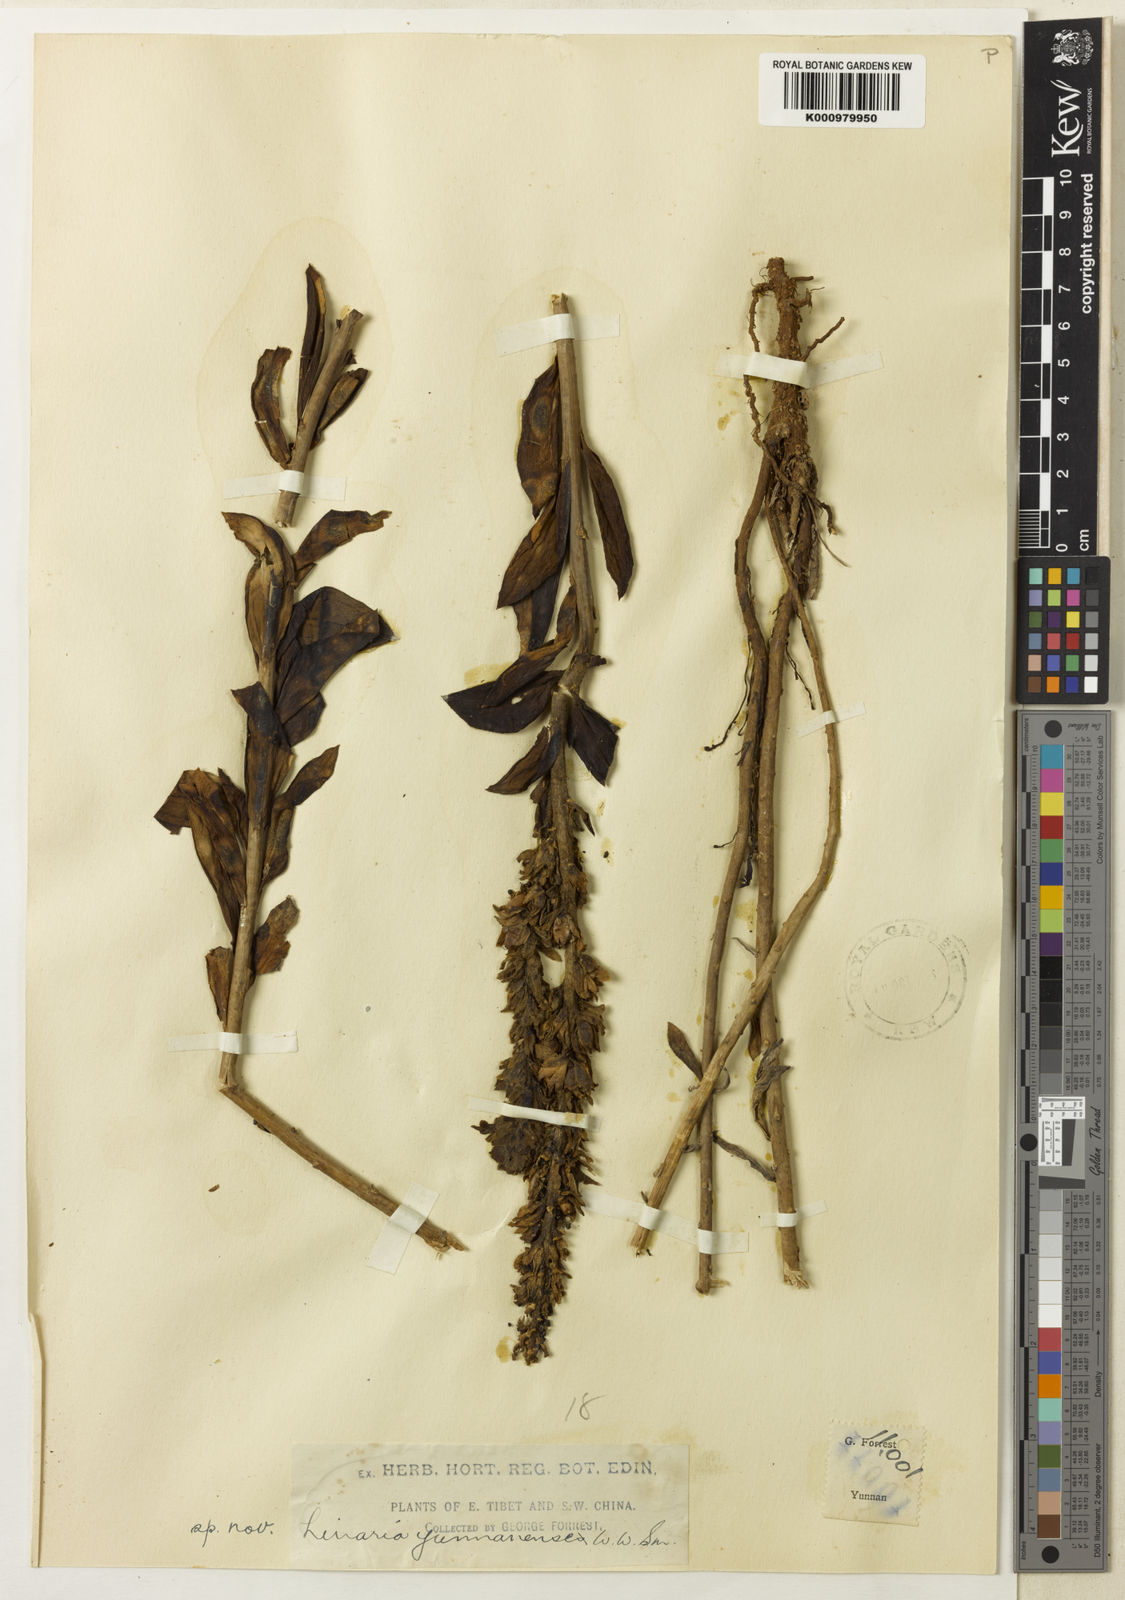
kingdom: Plantae
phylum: Tracheophyta
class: Magnoliopsida
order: Lamiales
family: Plantaginaceae
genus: Linaria
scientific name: Linaria yunnanensis
